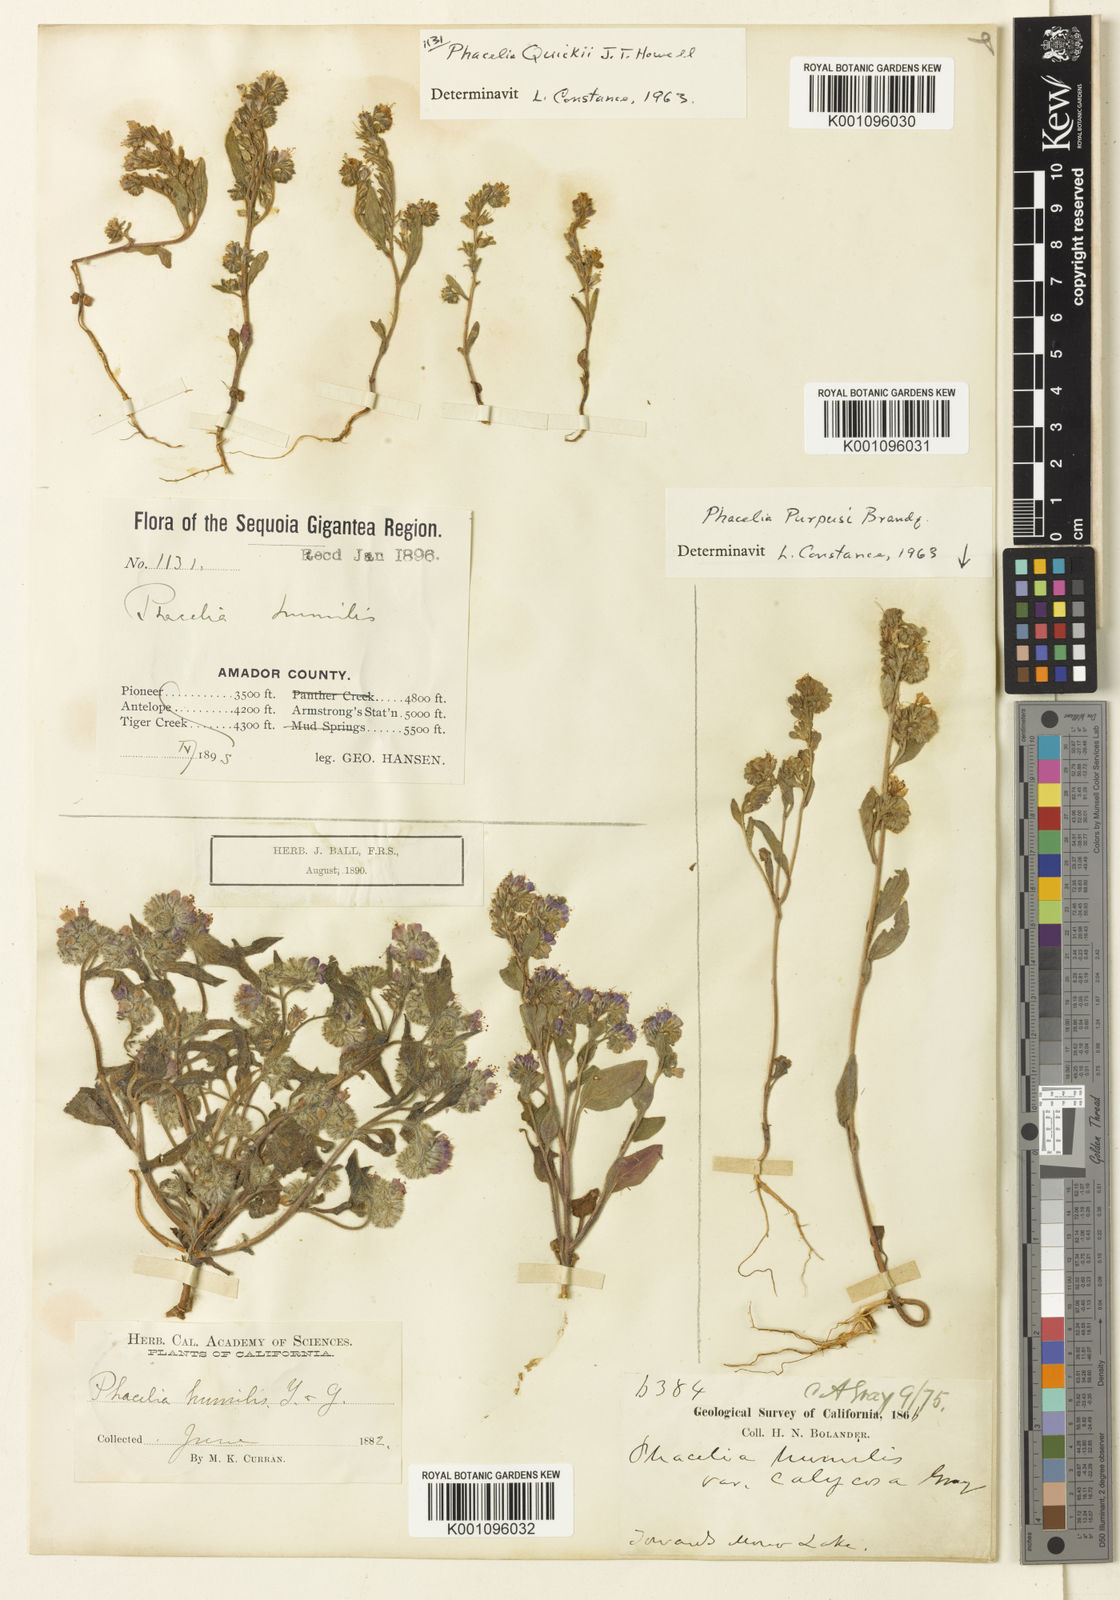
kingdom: Plantae
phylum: Tracheophyta
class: Magnoliopsida
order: Boraginales
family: Hydrophyllaceae
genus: Phacelia
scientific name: Phacelia purpusii
